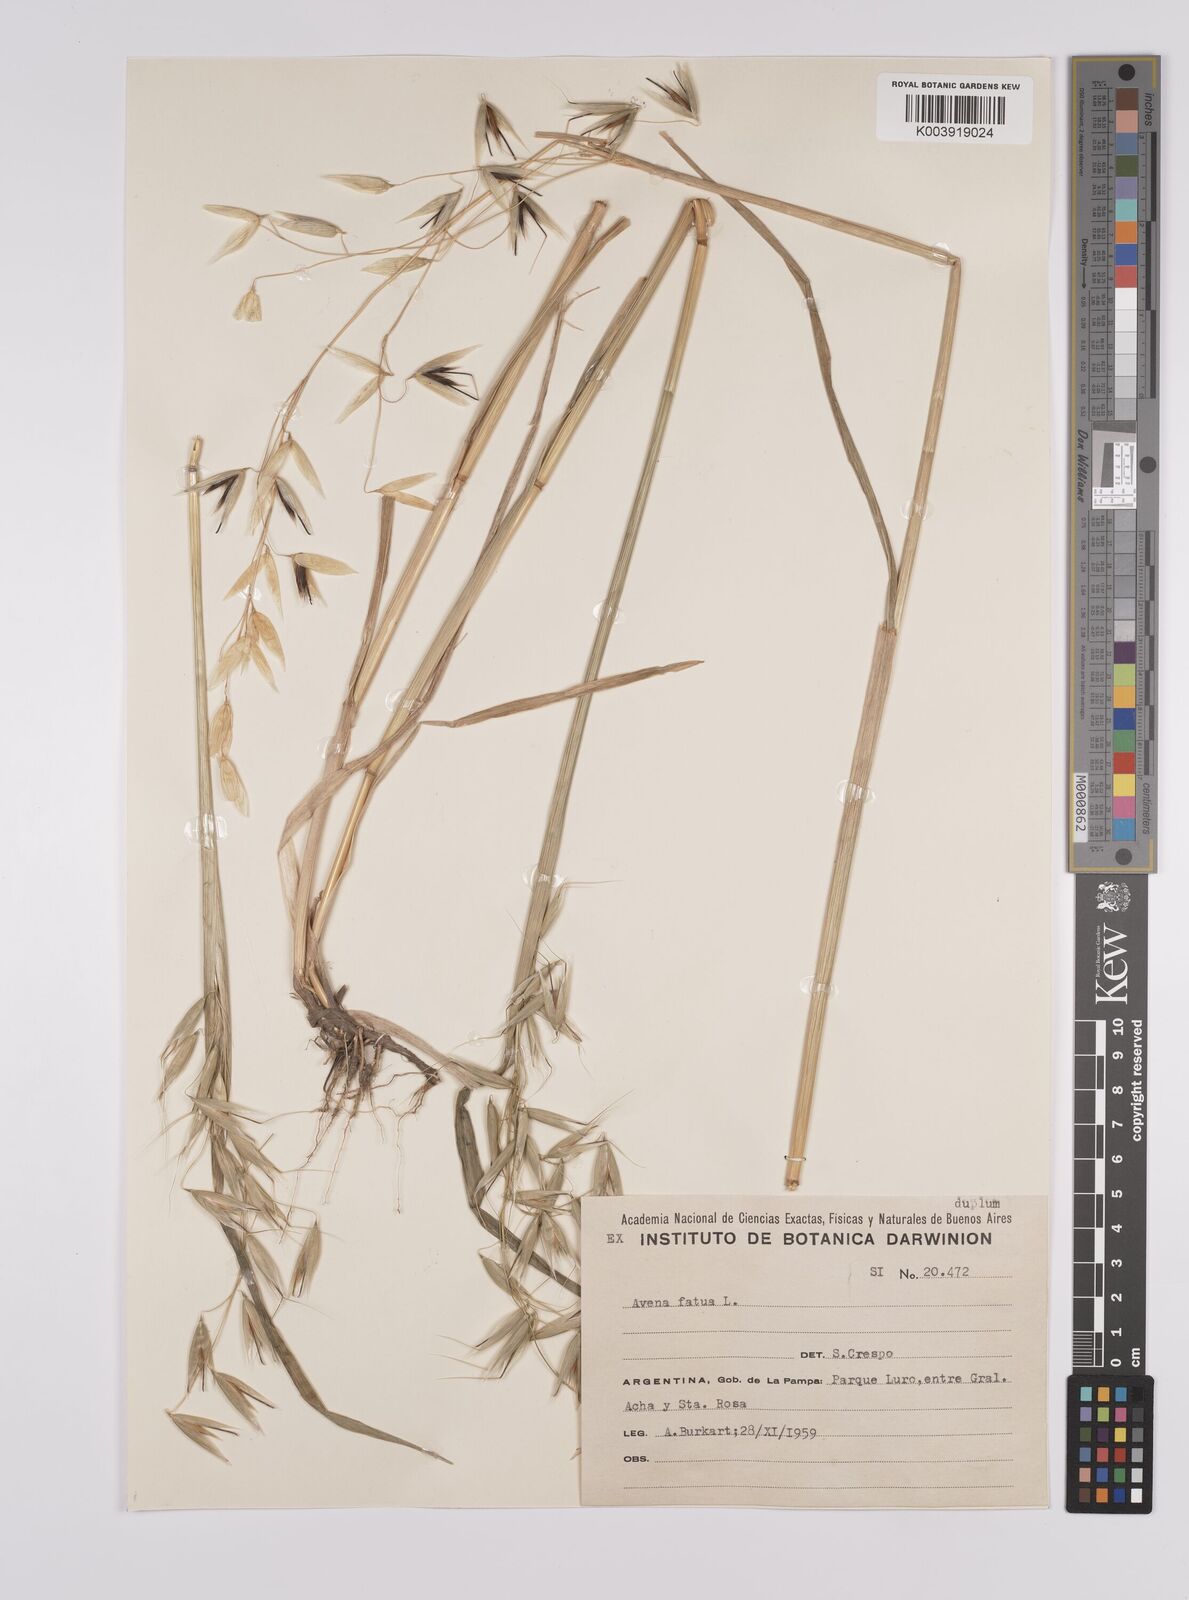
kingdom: Plantae
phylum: Tracheophyta
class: Liliopsida
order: Poales
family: Poaceae
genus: Avena
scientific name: Avena fatua
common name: Wild oat
